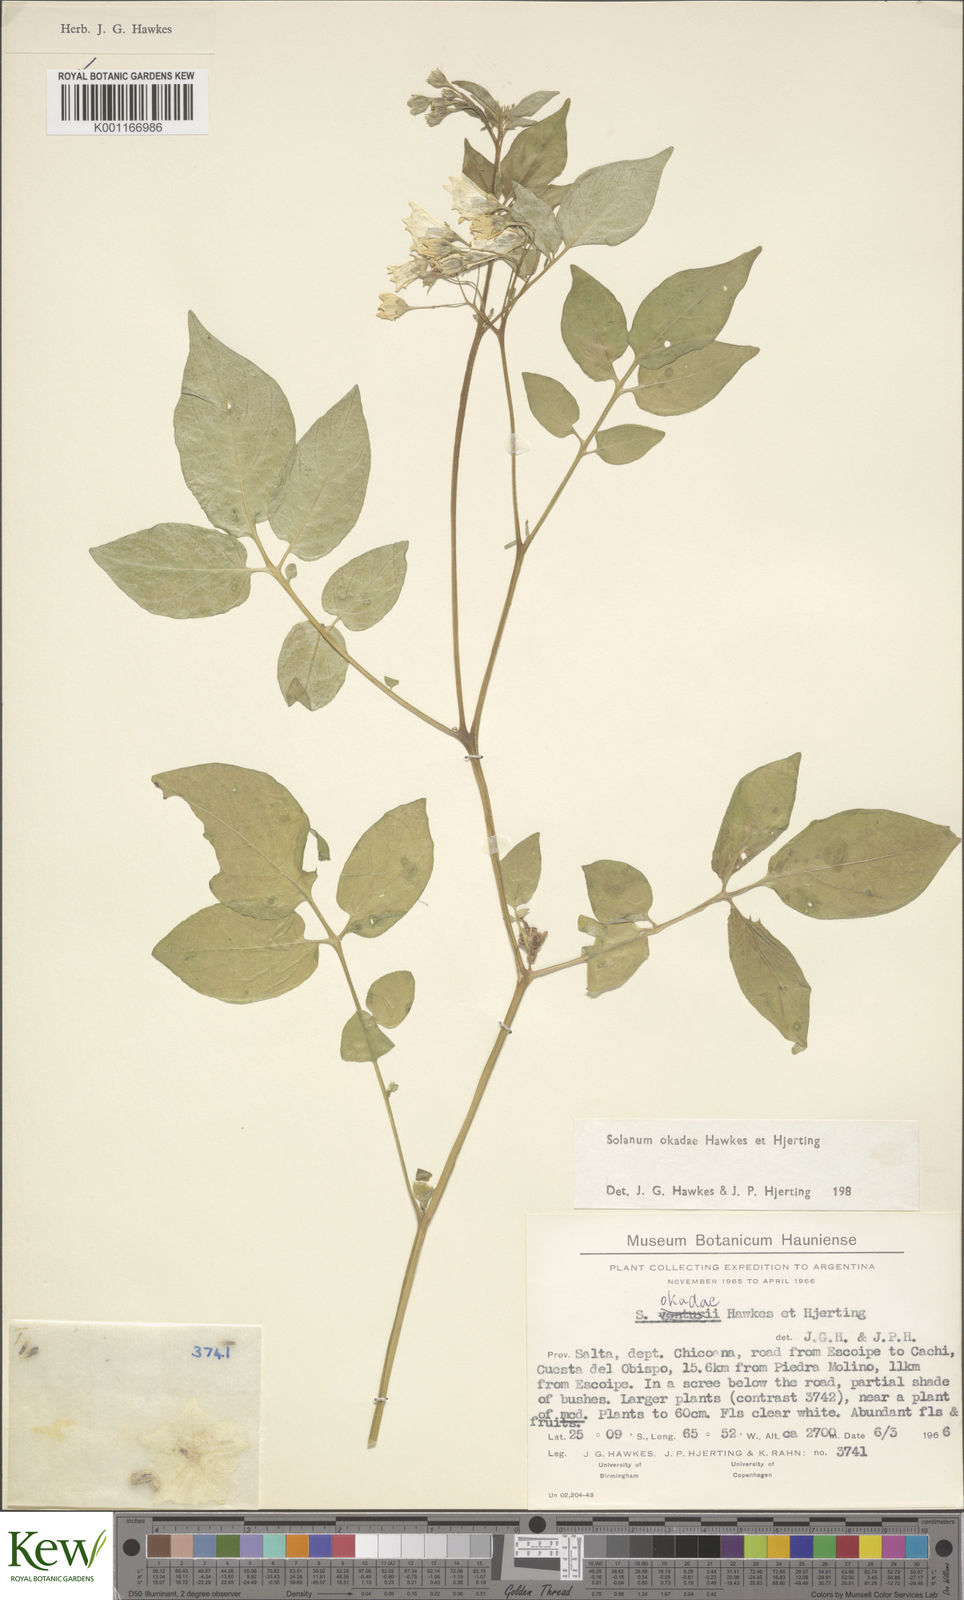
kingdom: Plantae
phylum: Tracheophyta
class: Magnoliopsida
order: Solanales
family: Solanaceae
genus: Solanum
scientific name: Solanum okadae
